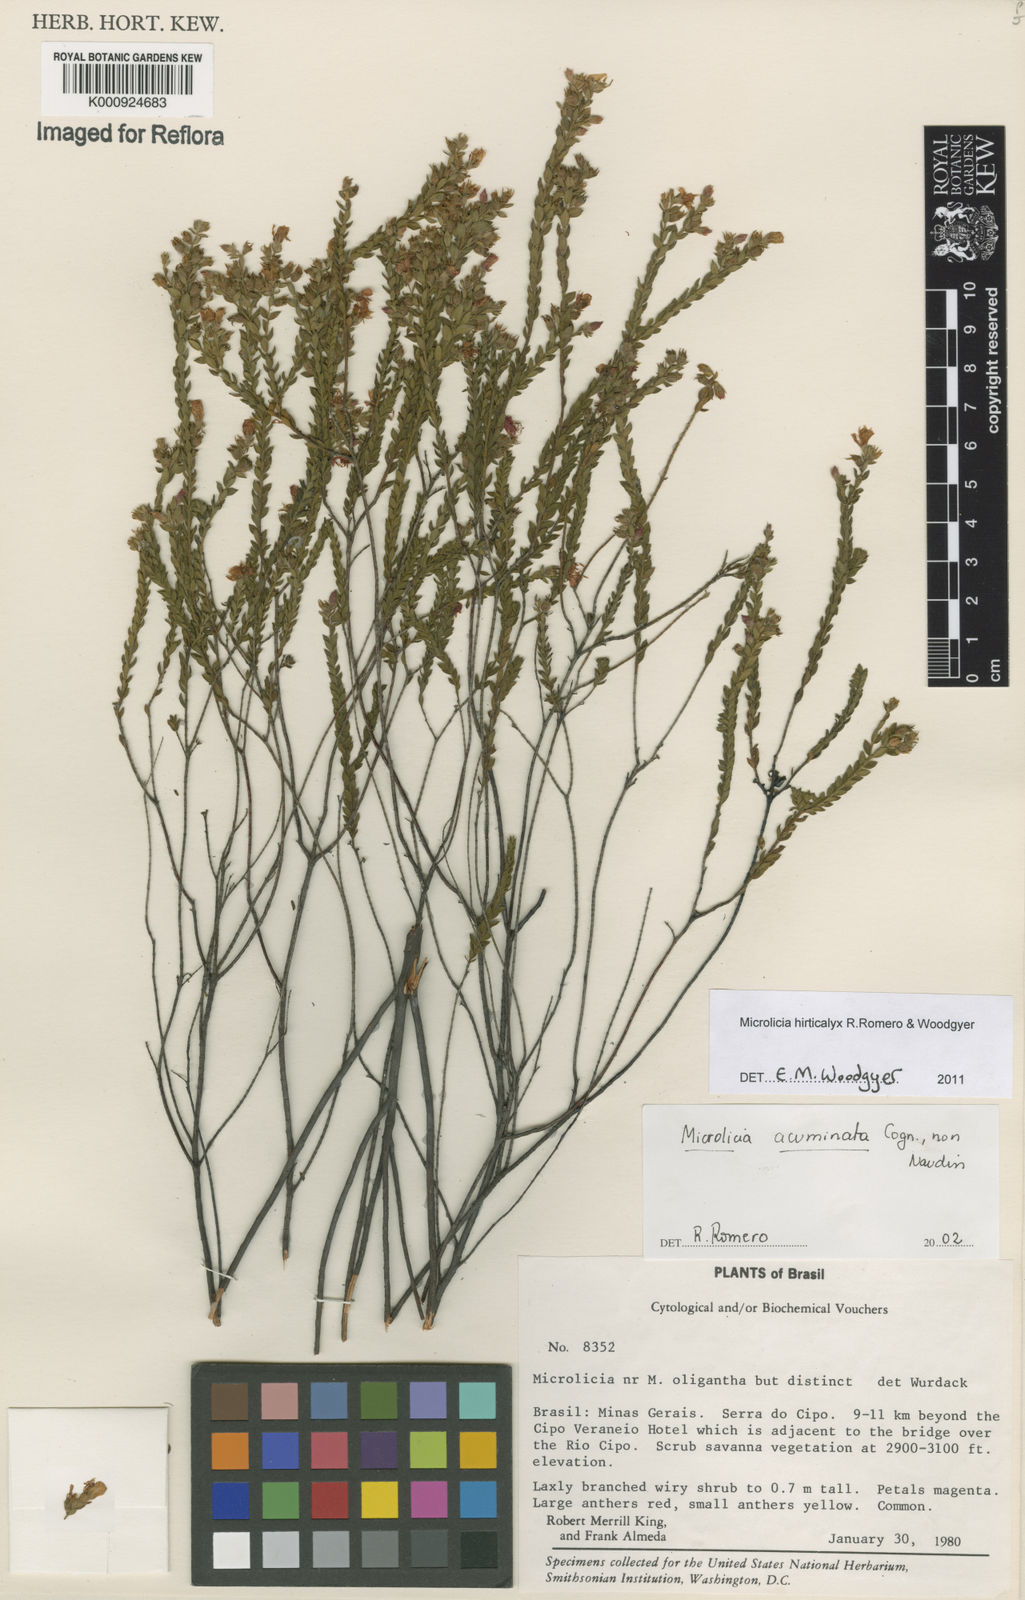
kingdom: Plantae
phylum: Tracheophyta
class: Magnoliopsida
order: Myrtales
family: Melastomataceae
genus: Microlicia
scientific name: Microlicia hirticalyx
